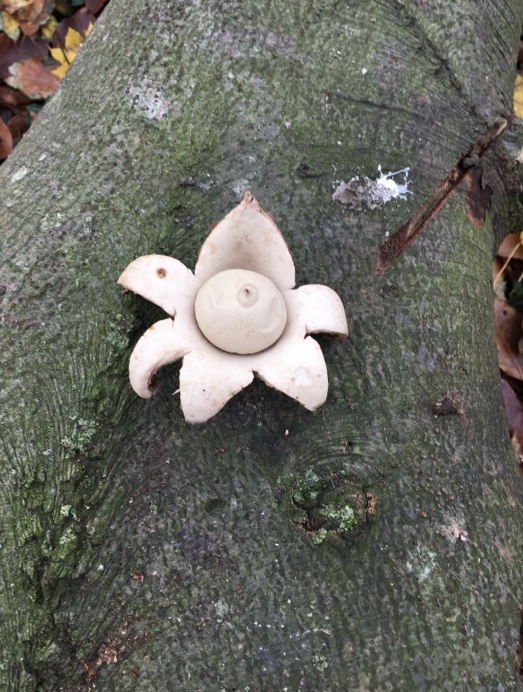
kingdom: Fungi
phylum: Basidiomycota
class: Agaricomycetes
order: Geastrales
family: Geastraceae
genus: Geastrum
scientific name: Geastrum michelianum
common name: kødet stjernebold
